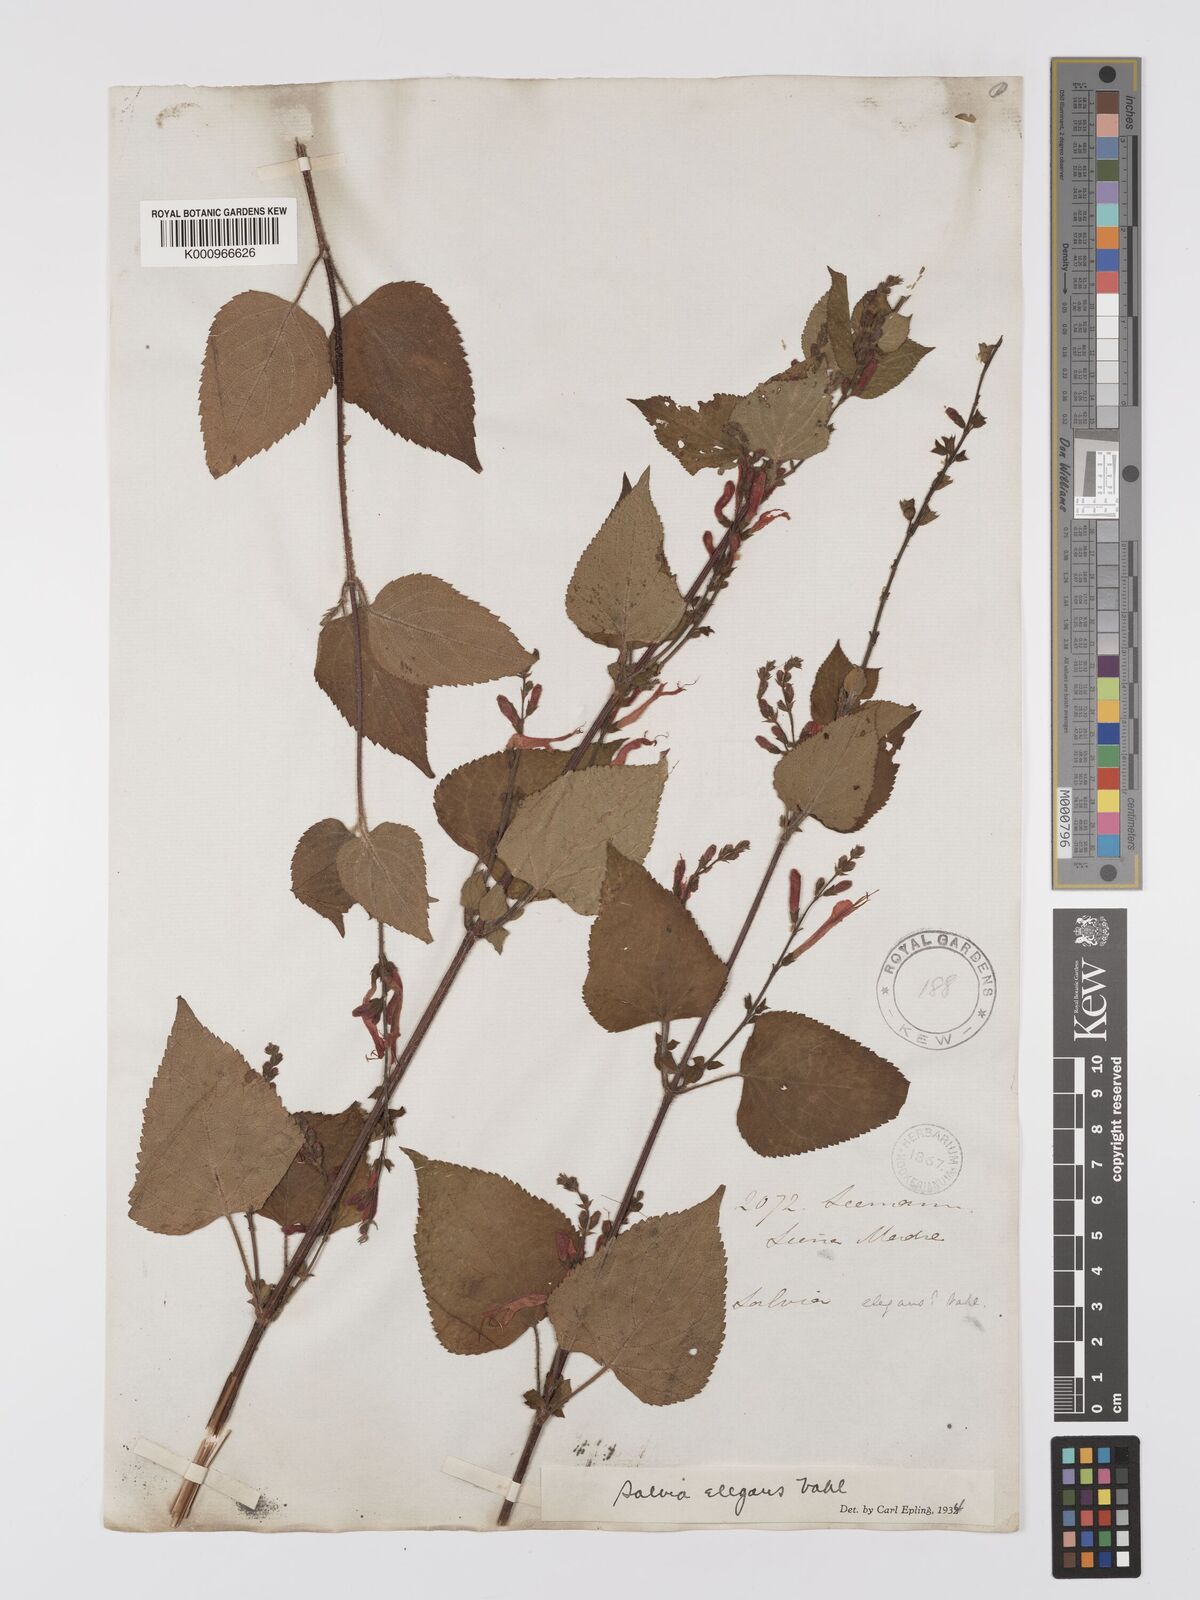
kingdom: Plantae
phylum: Tracheophyta
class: Magnoliopsida
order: Lamiales
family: Lamiaceae
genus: Salvia
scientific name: Salvia elegans
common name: Pineapple sage
